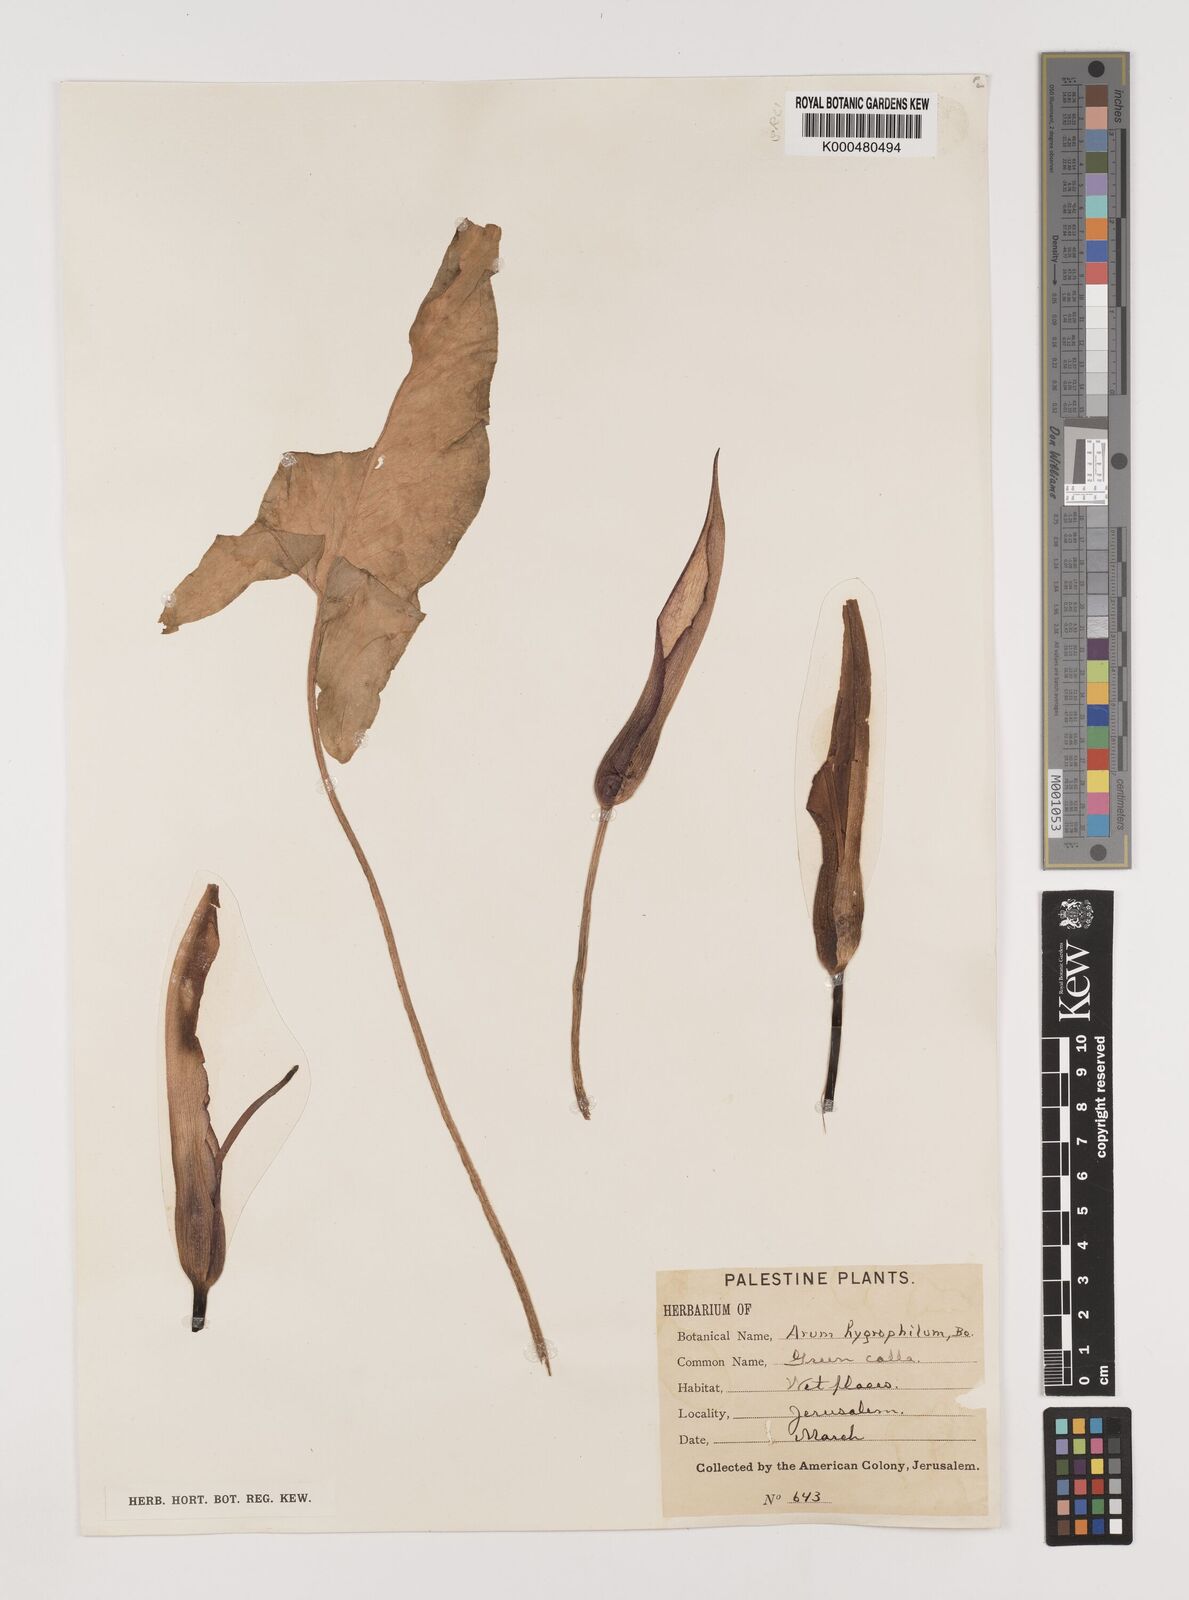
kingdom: Plantae
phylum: Tracheophyta
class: Liliopsida
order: Alismatales
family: Araceae
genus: Arum
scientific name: Arum hygrophilum
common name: Water arum
